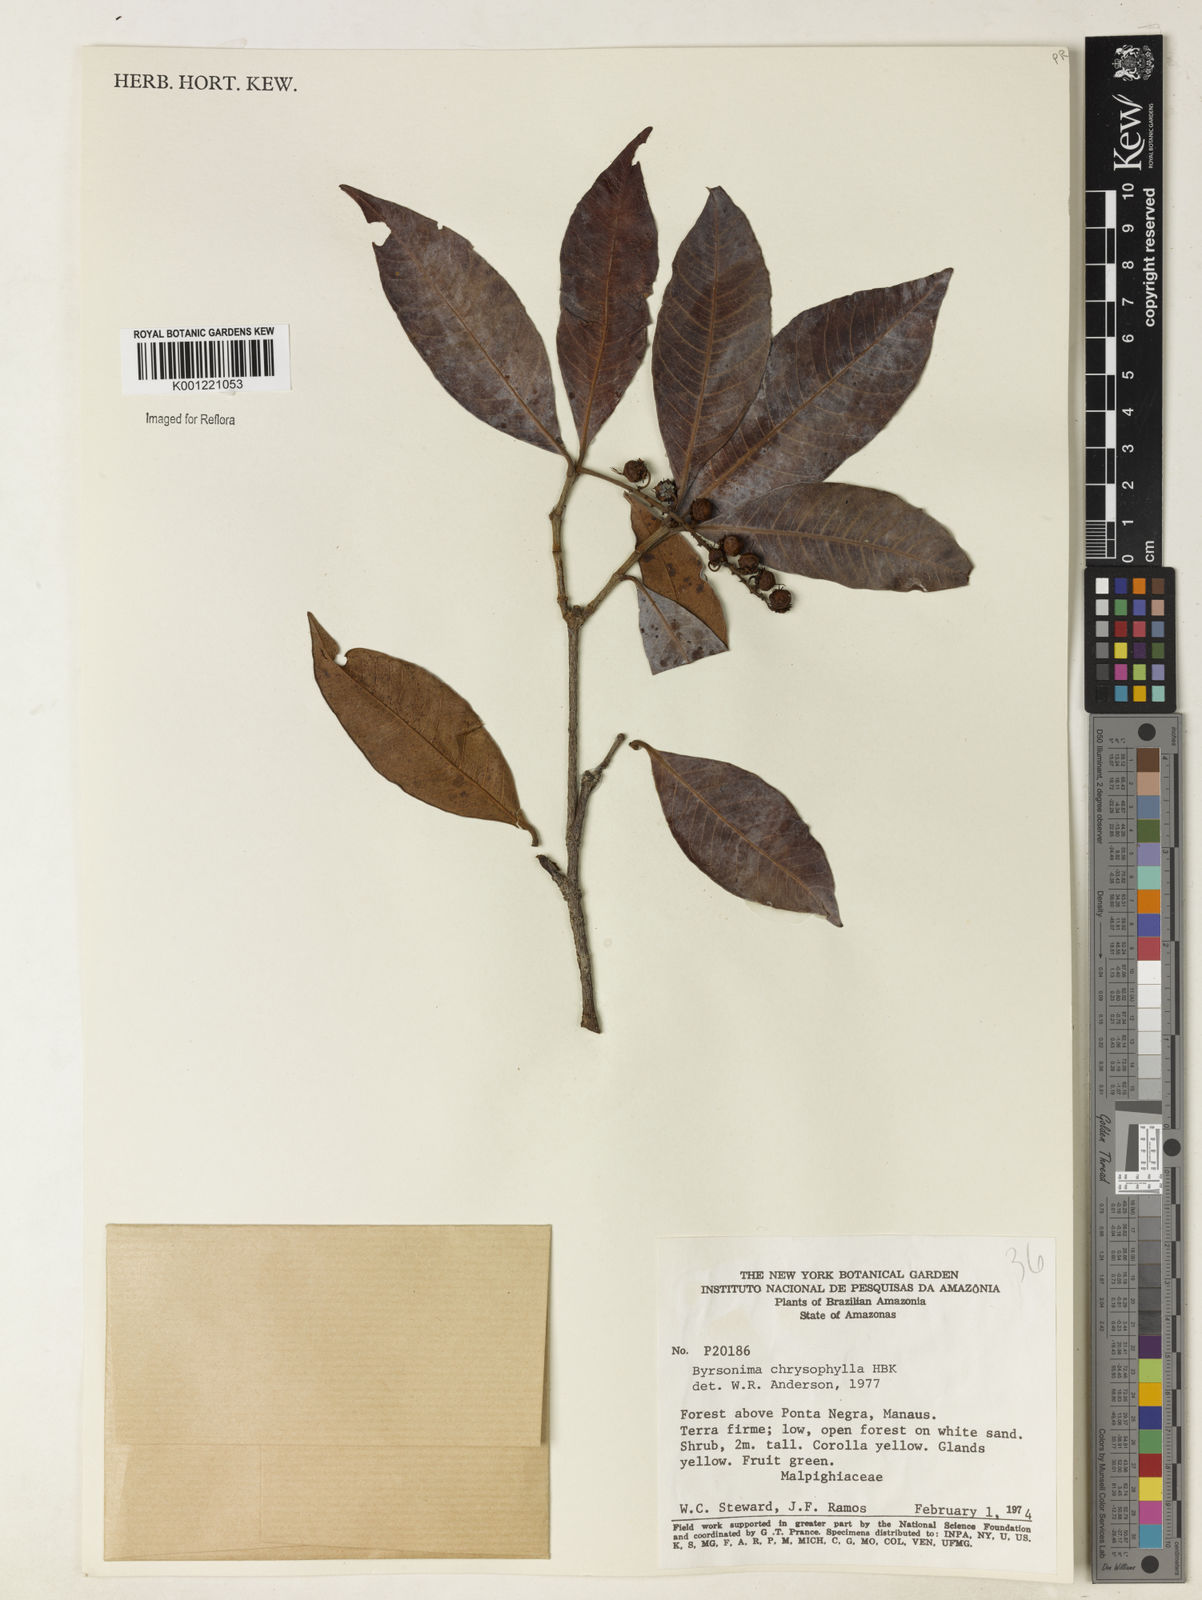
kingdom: Plantae
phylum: Tracheophyta
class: Magnoliopsida
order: Malpighiales
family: Malpighiaceae
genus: Byrsonima
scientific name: Byrsonima chrysophylla
